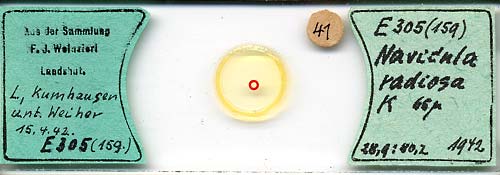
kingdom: Chromista
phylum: Ochrophyta
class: Bacillariophyceae
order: Naviculales
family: Naviculaceae
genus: Navicula
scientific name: Navicula radiosa
